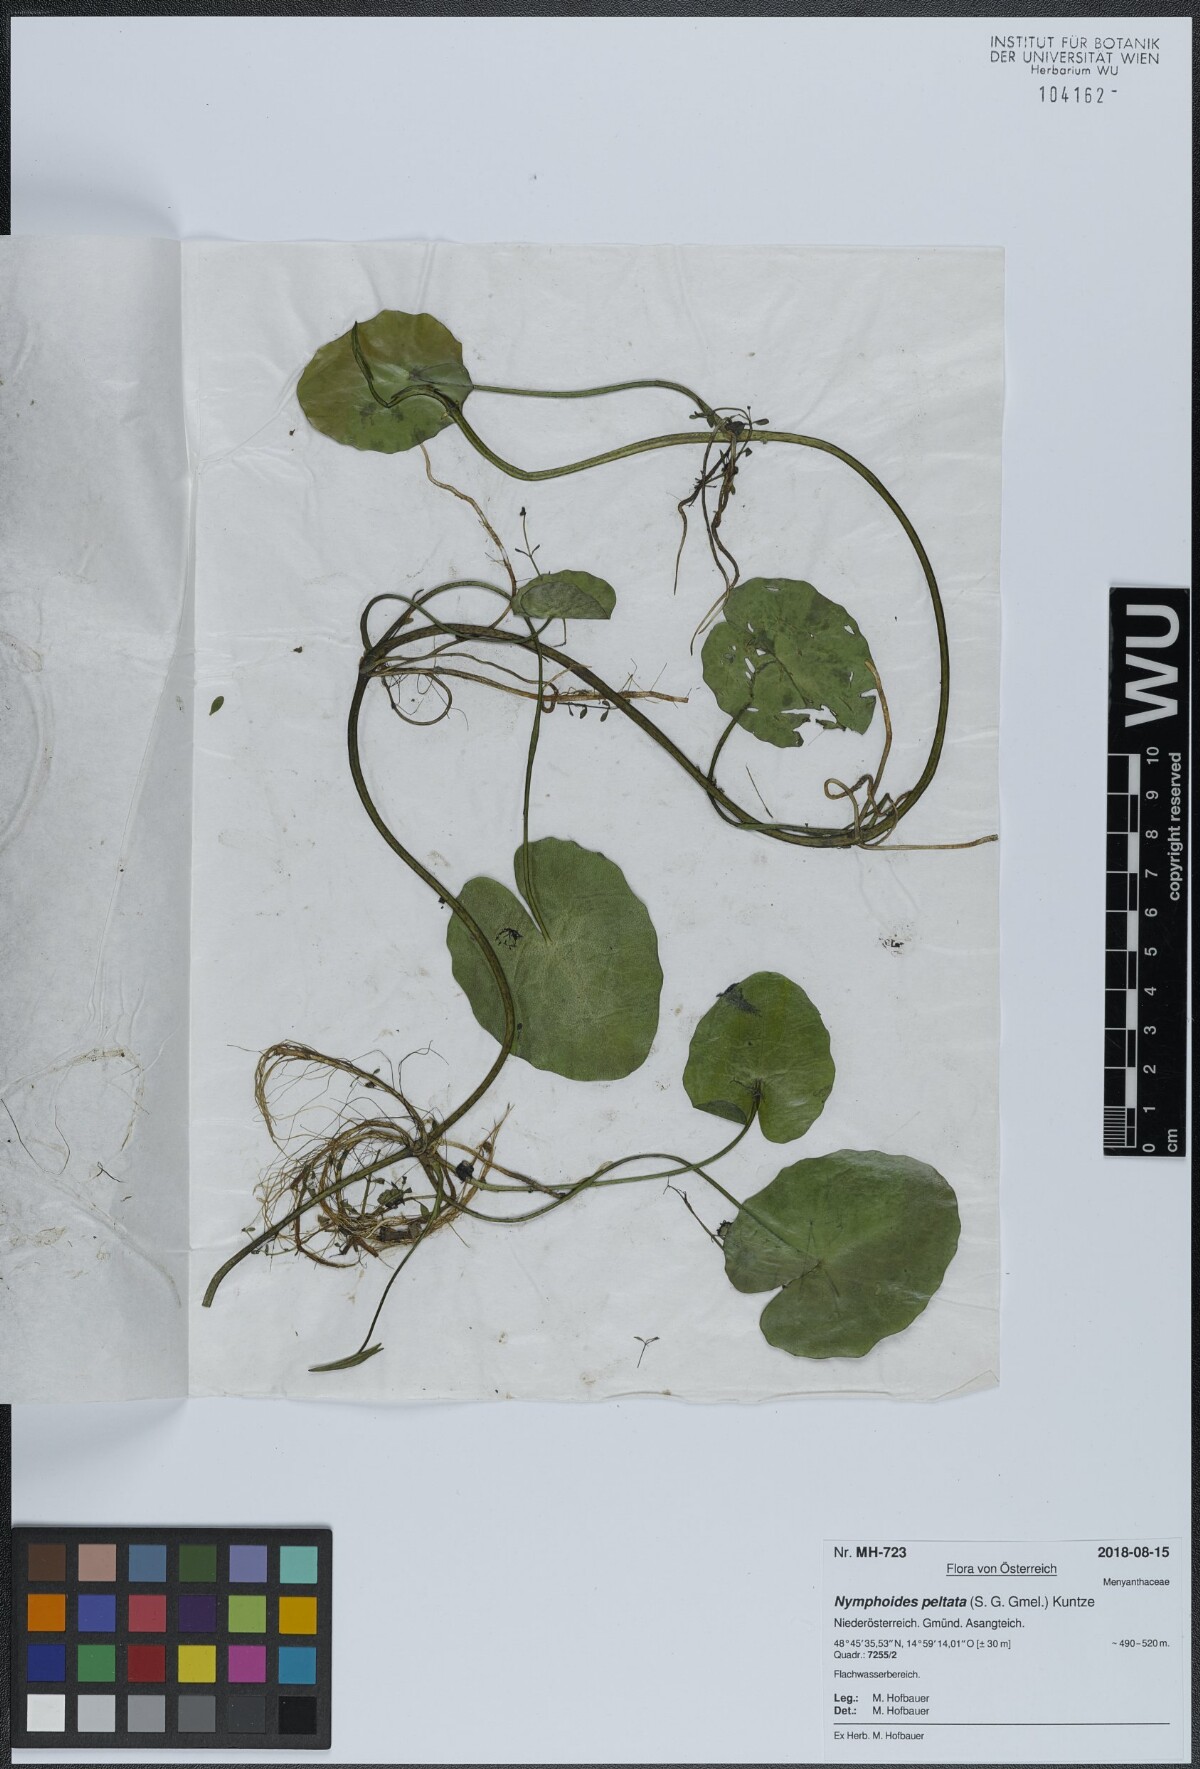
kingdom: Plantae
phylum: Tracheophyta
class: Magnoliopsida
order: Asterales
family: Menyanthaceae
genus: Nymphoides
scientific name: Nymphoides peltata
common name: Fringed water-lily
